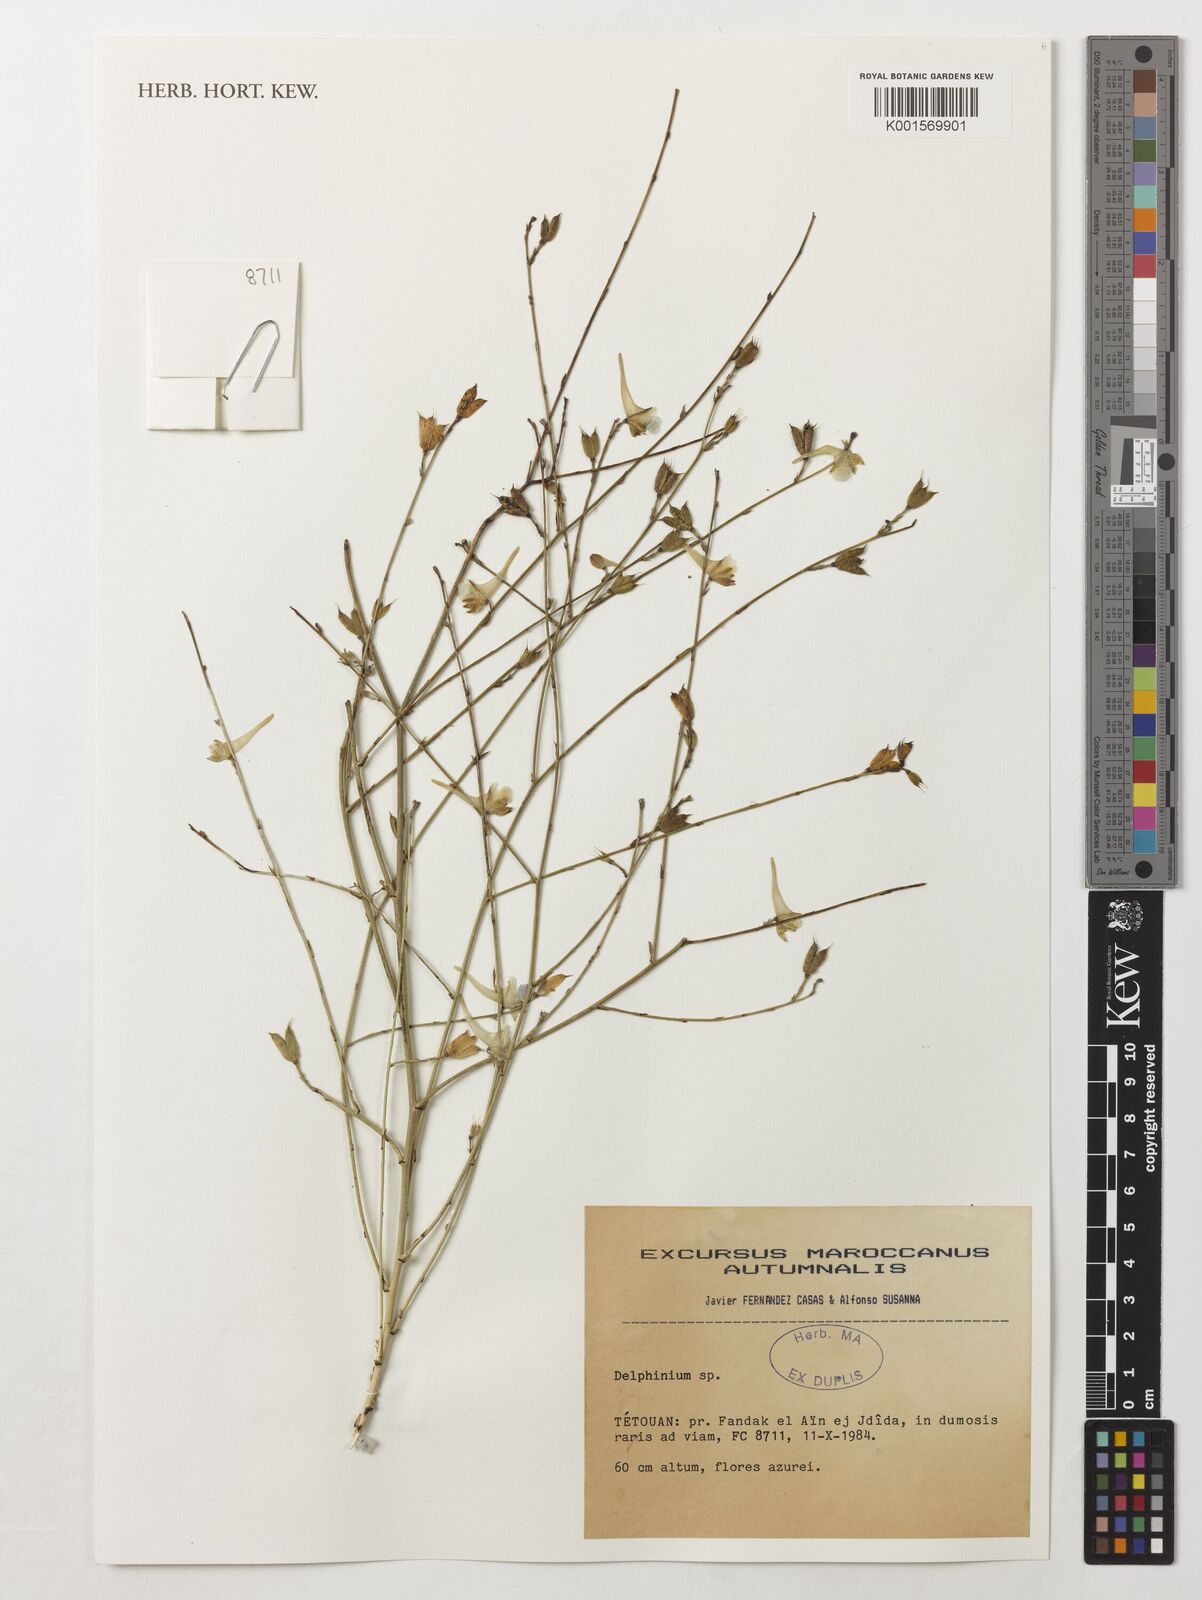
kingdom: Plantae
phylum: Tracheophyta
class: Magnoliopsida
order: Ranunculales
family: Ranunculaceae
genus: Delphinium
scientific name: Delphinium
